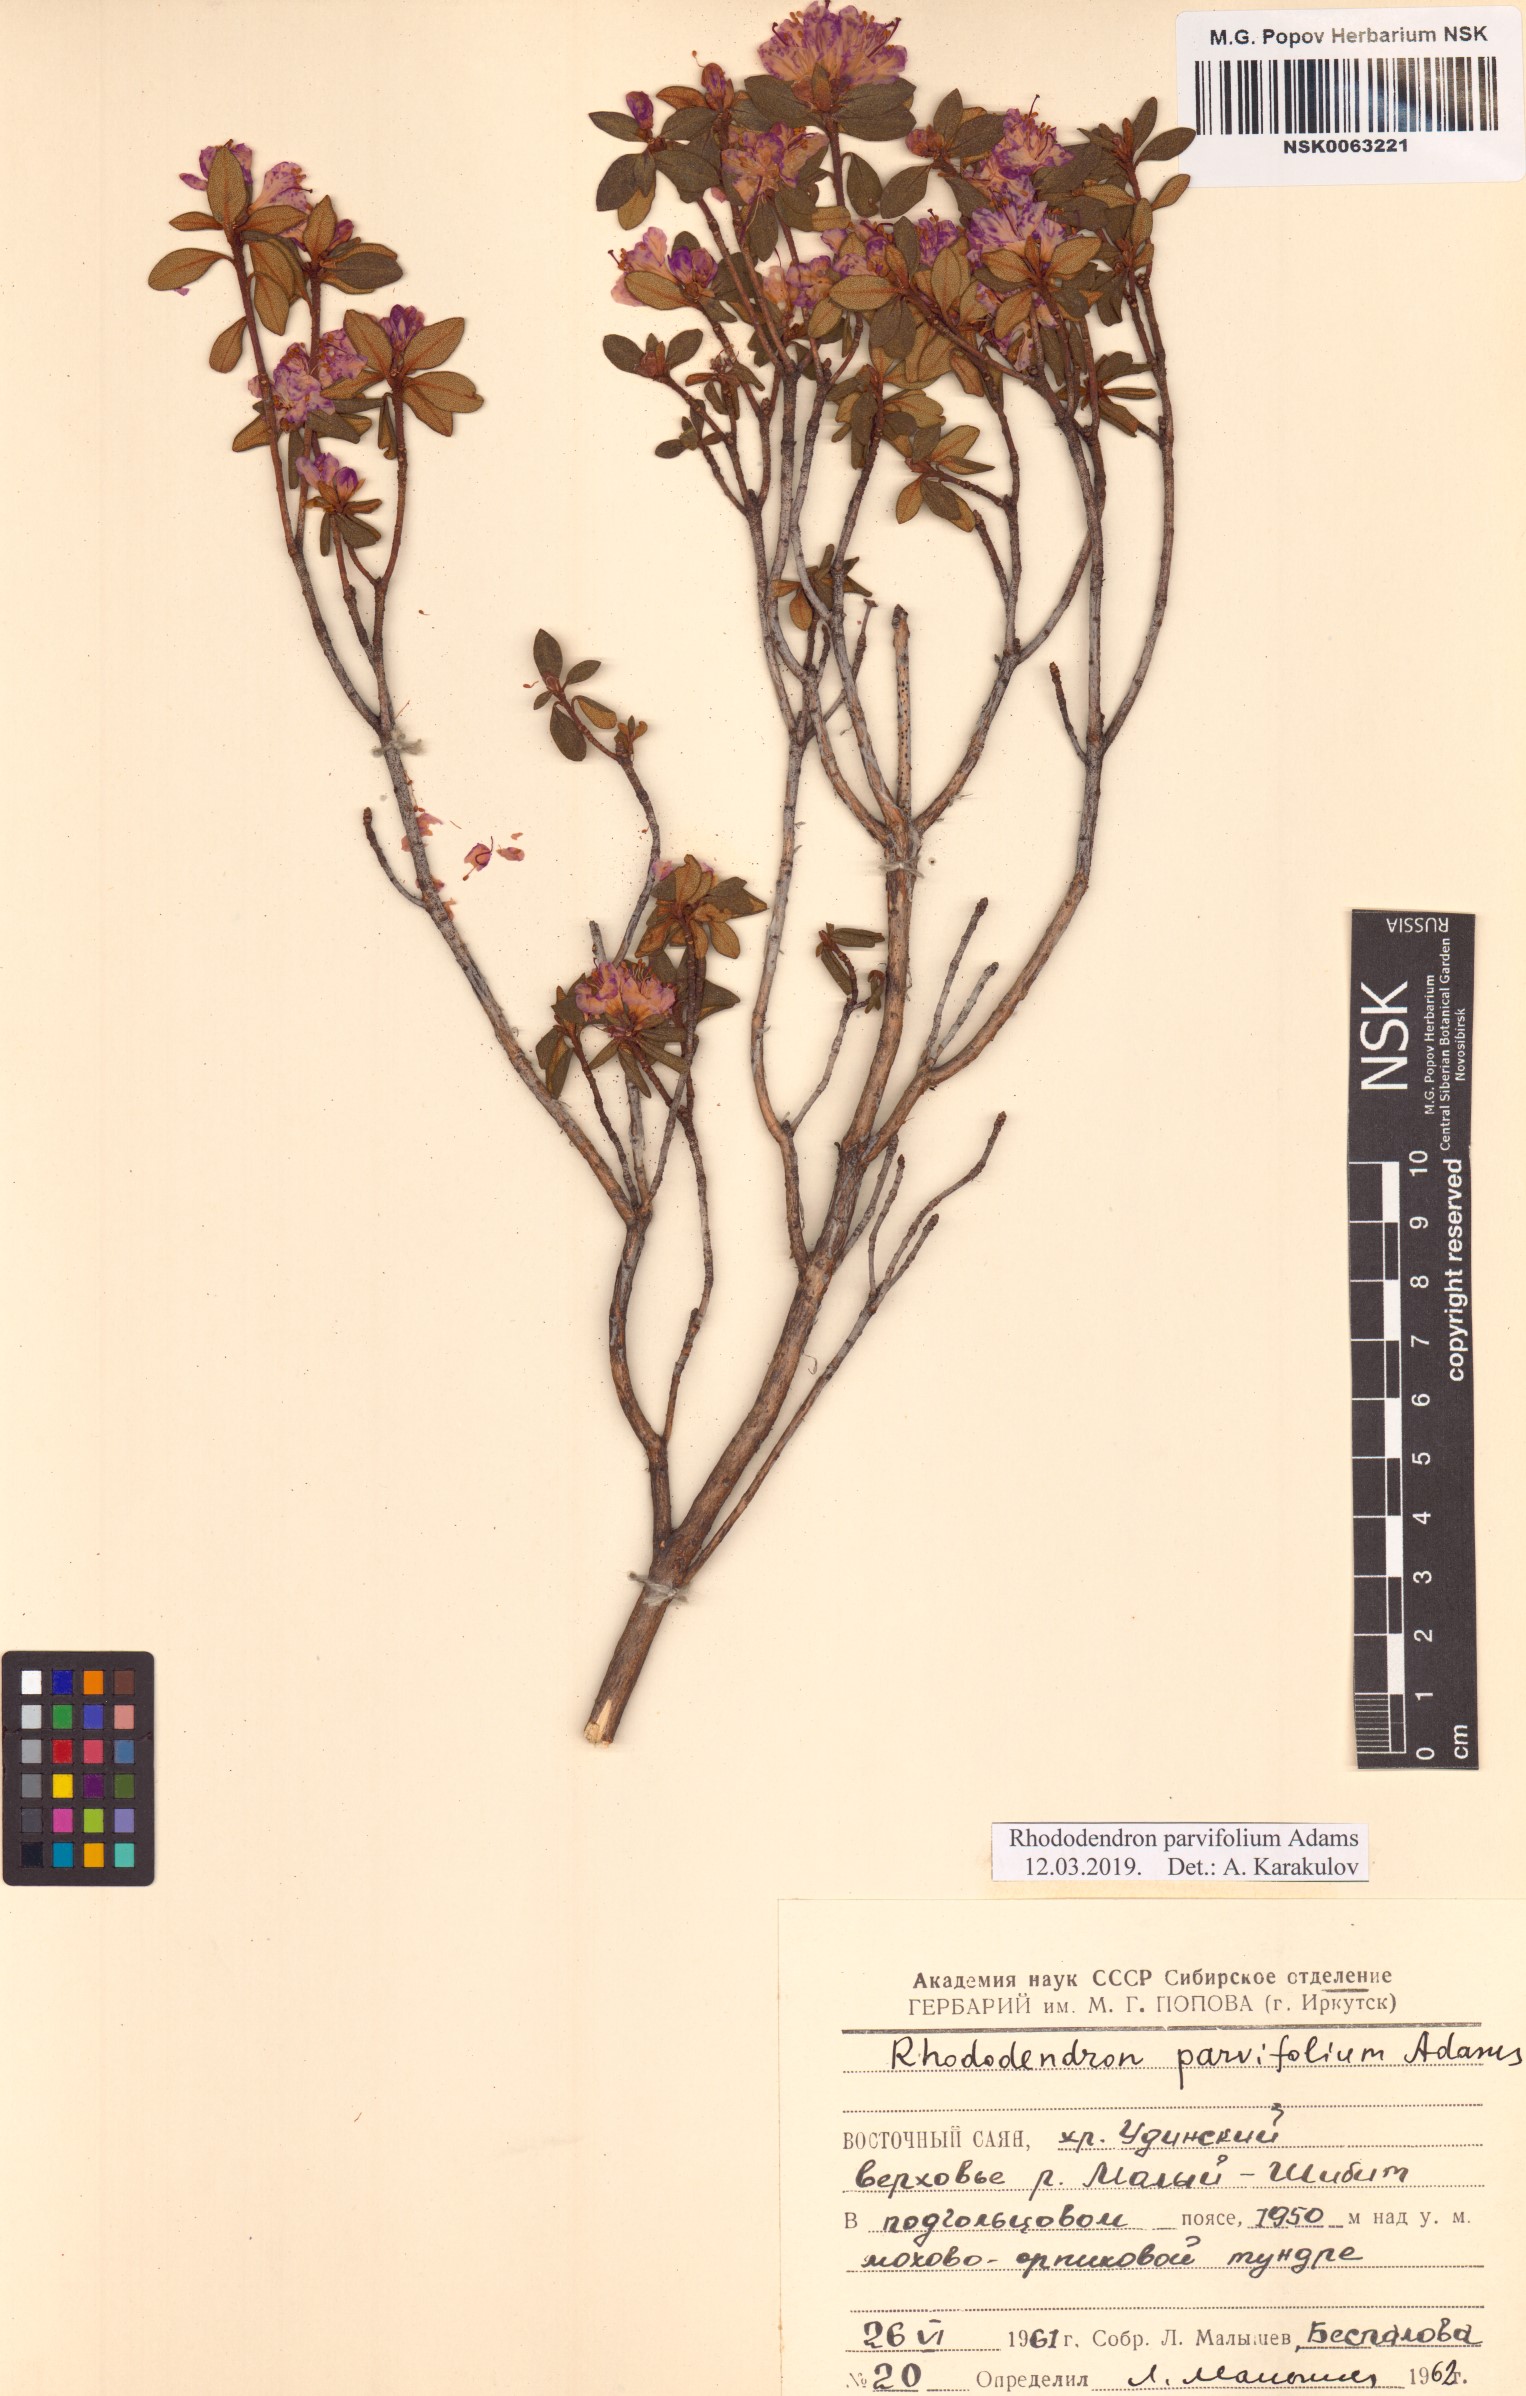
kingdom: Plantae
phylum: Tracheophyta
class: Magnoliopsida
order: Ericales
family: Ericaceae
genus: Rhododendron
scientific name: Rhododendron parvifolium
